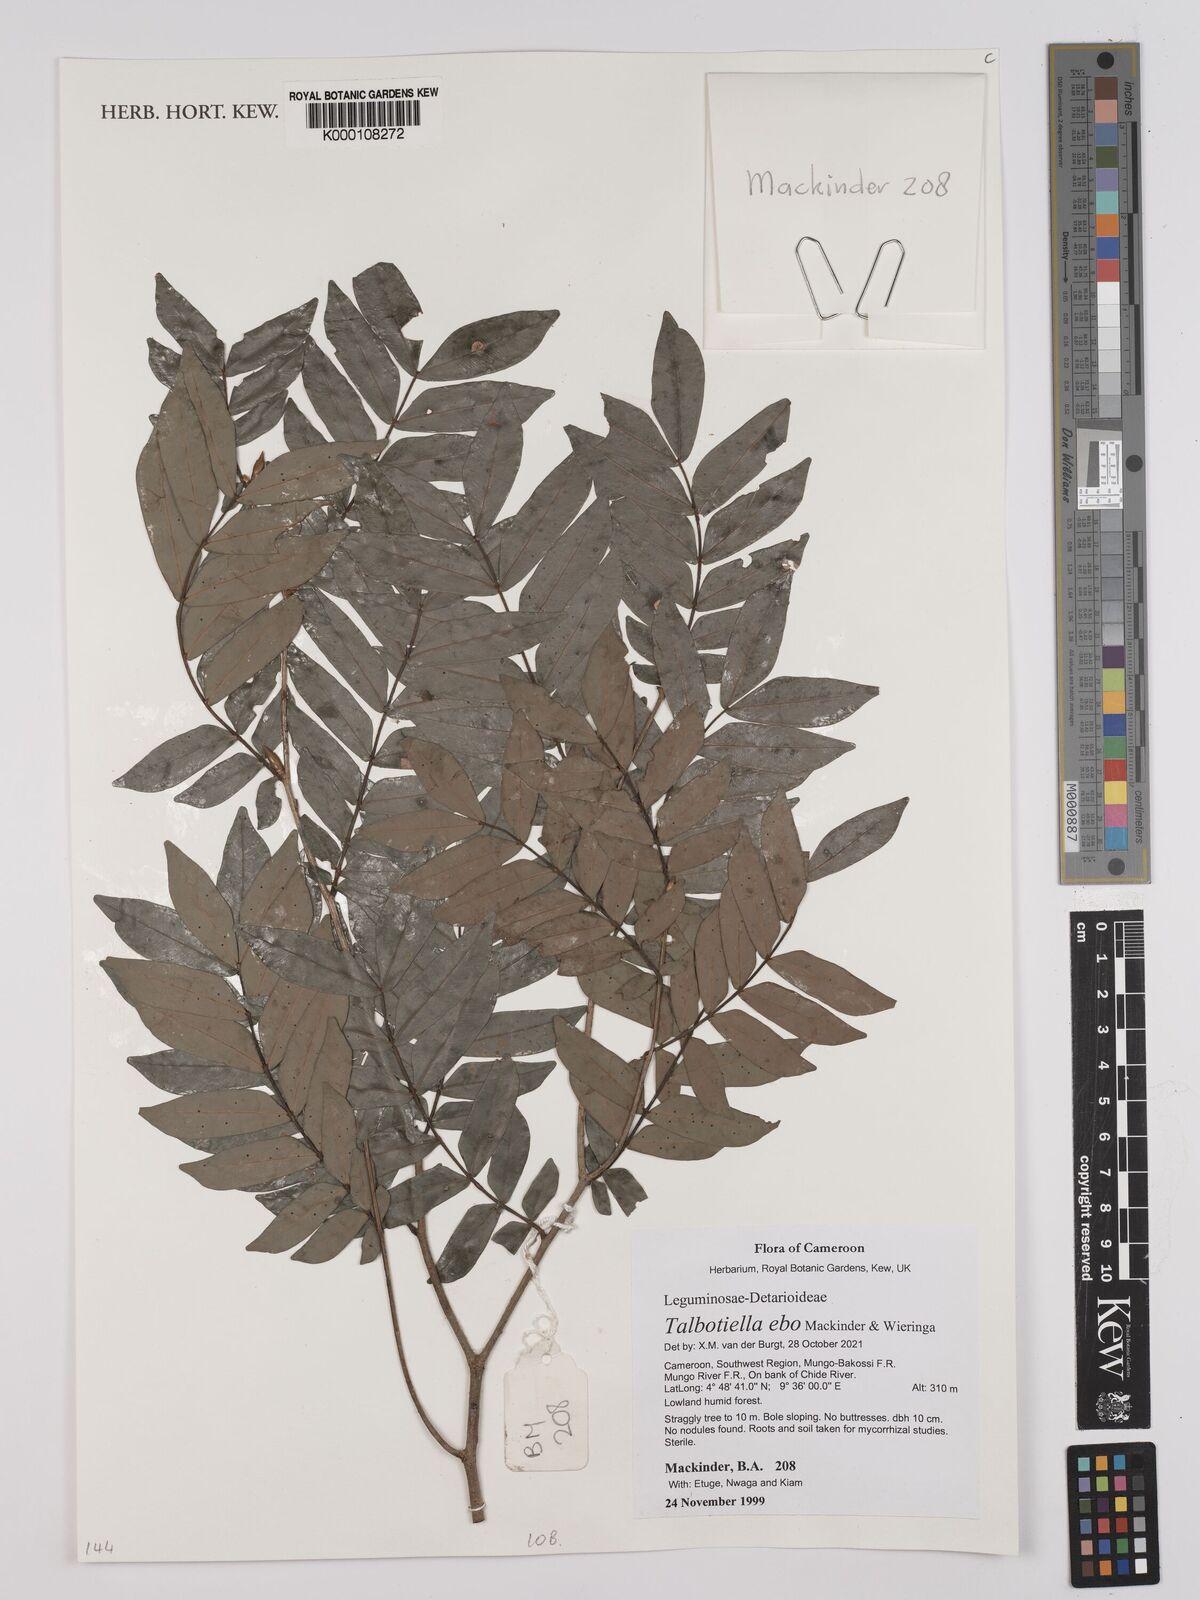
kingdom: Plantae
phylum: Tracheophyta
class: Magnoliopsida
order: Fabales
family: Fabaceae
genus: Hymenostegia
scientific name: Hymenostegia
